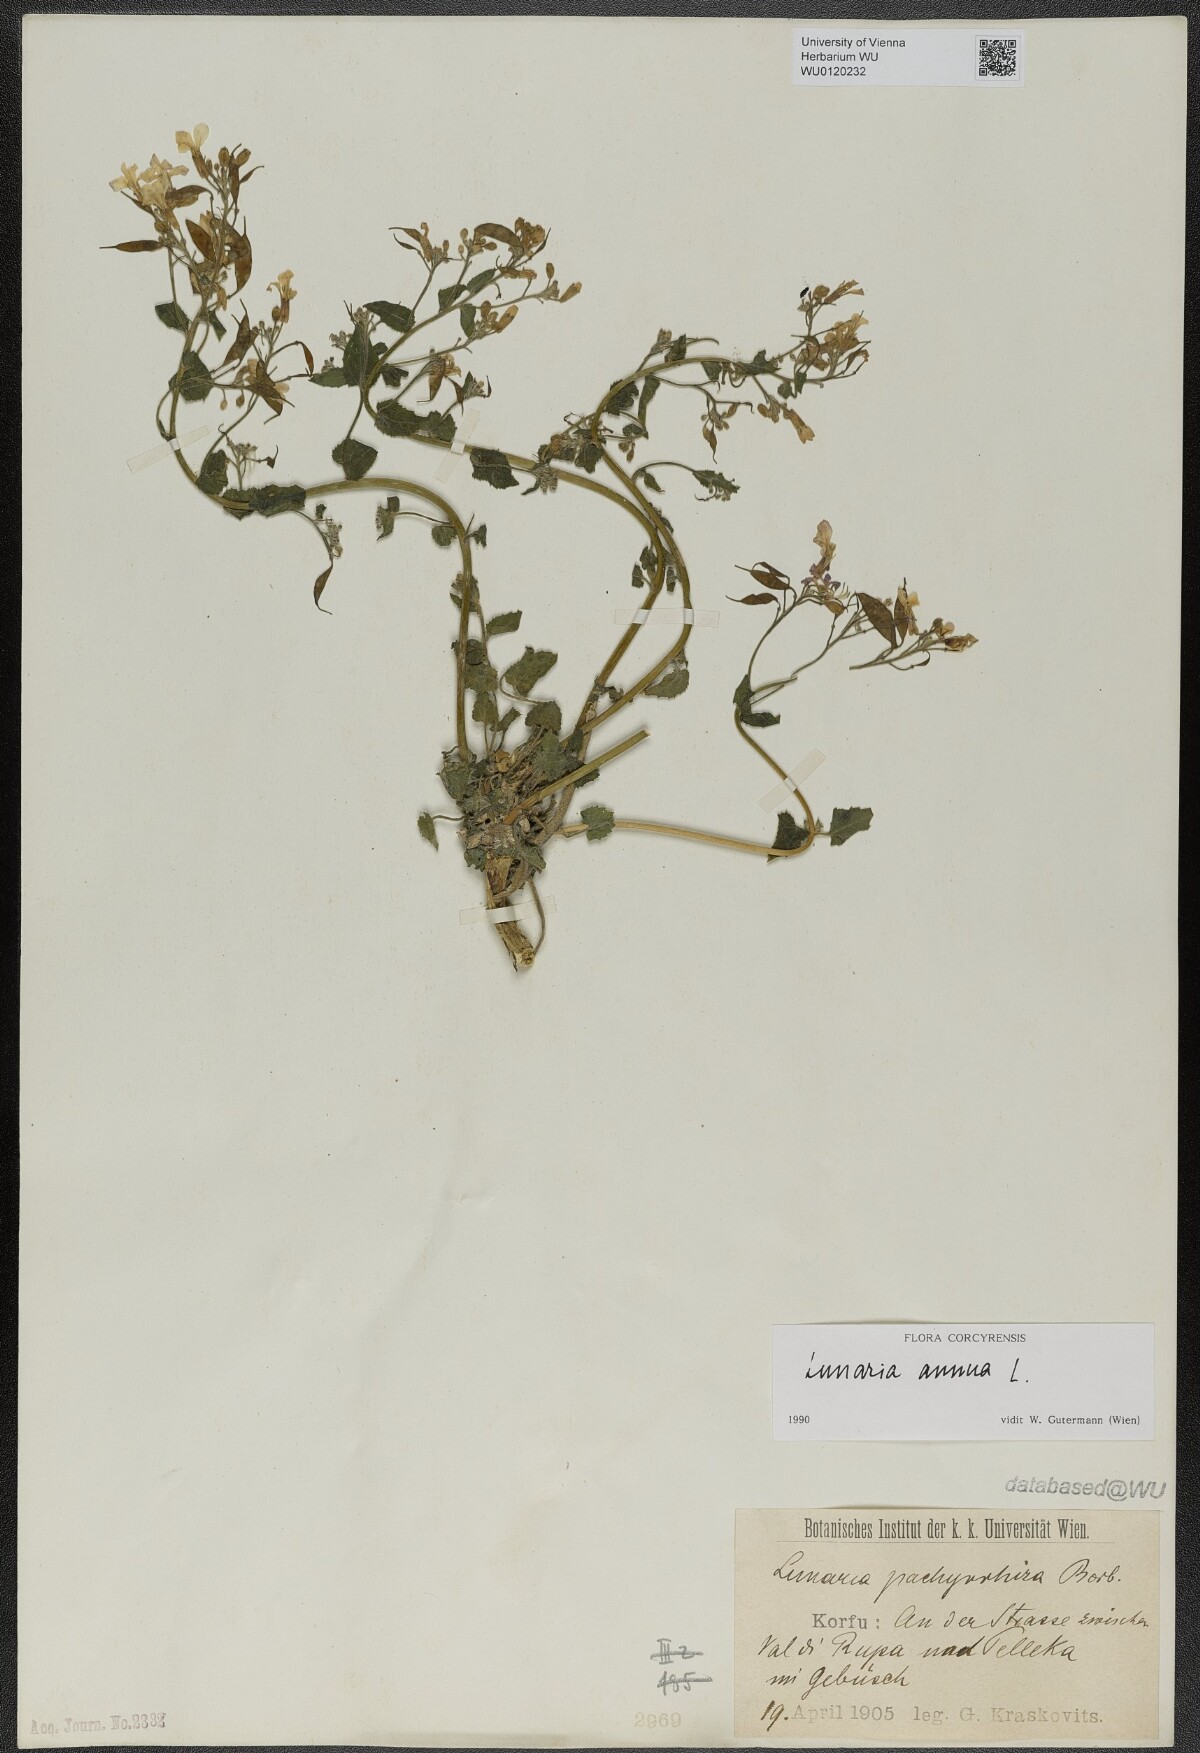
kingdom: Plantae
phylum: Tracheophyta
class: Magnoliopsida
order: Brassicales
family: Brassicaceae
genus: Lunaria
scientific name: Lunaria annua
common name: Honesty
